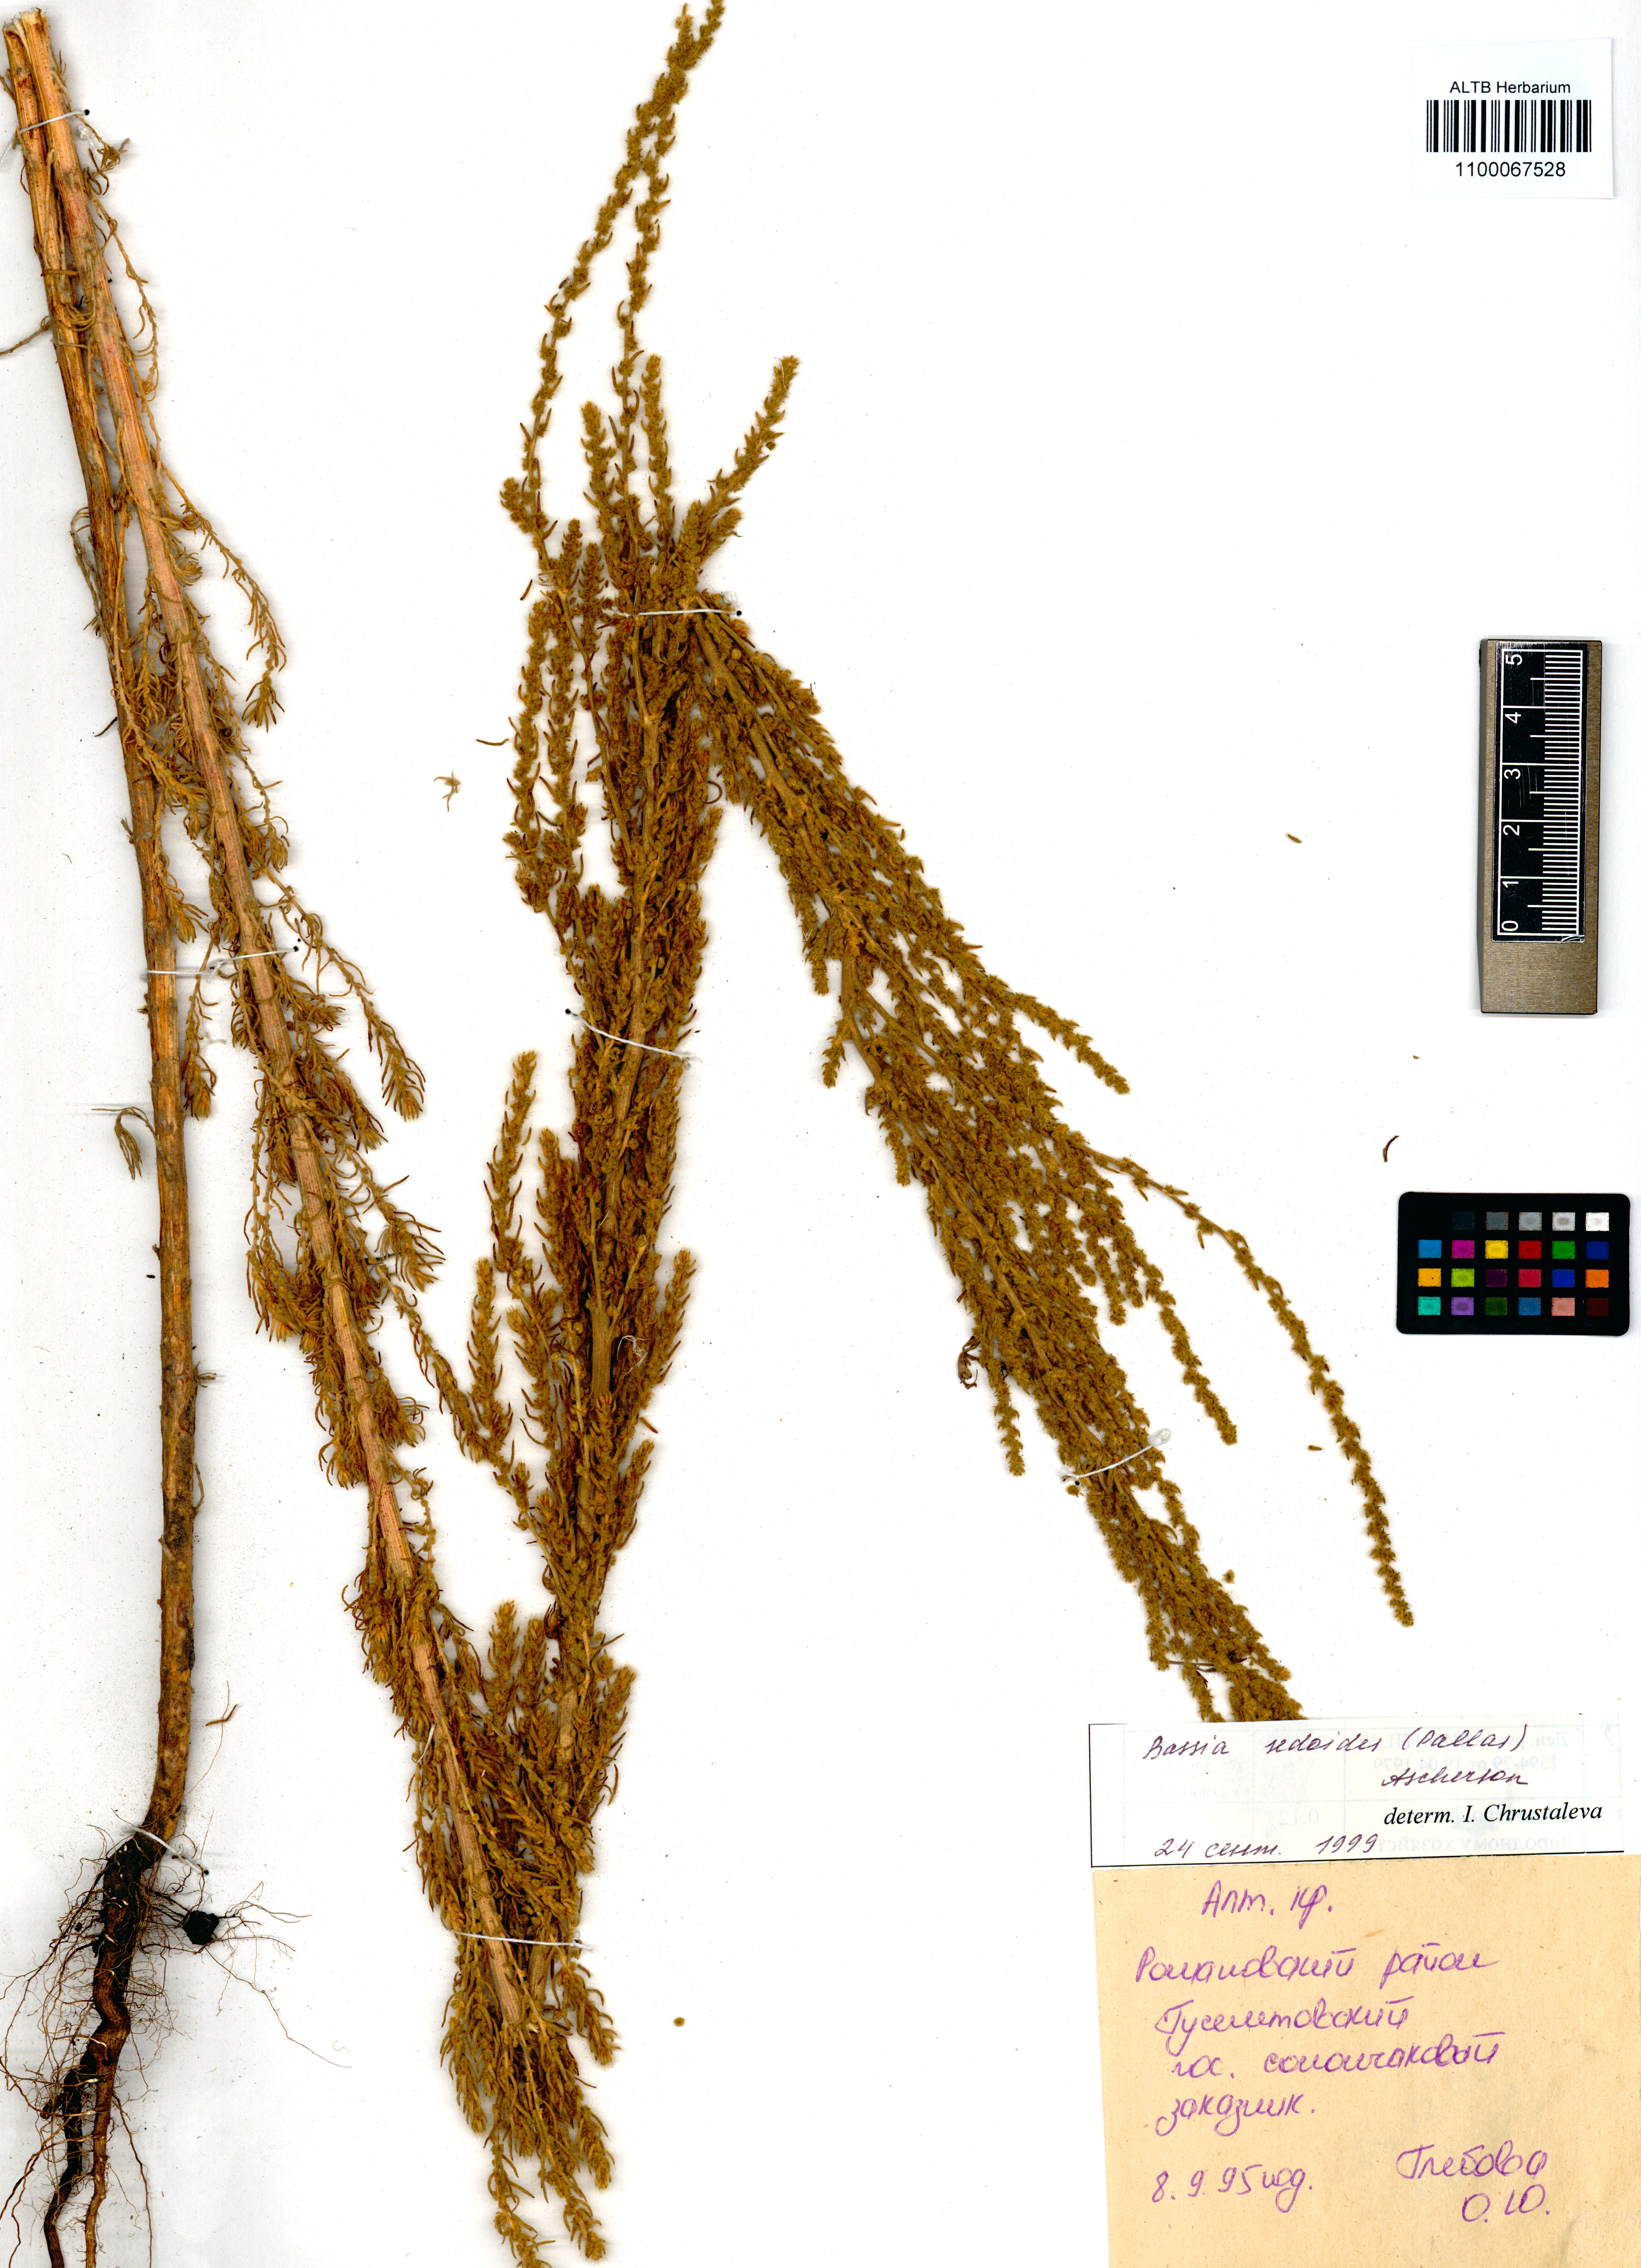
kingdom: Plantae
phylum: Tracheophyta
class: Magnoliopsida
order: Caryophyllales
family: Amaranthaceae
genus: Sedobassia
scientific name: Sedobassia sedoides
